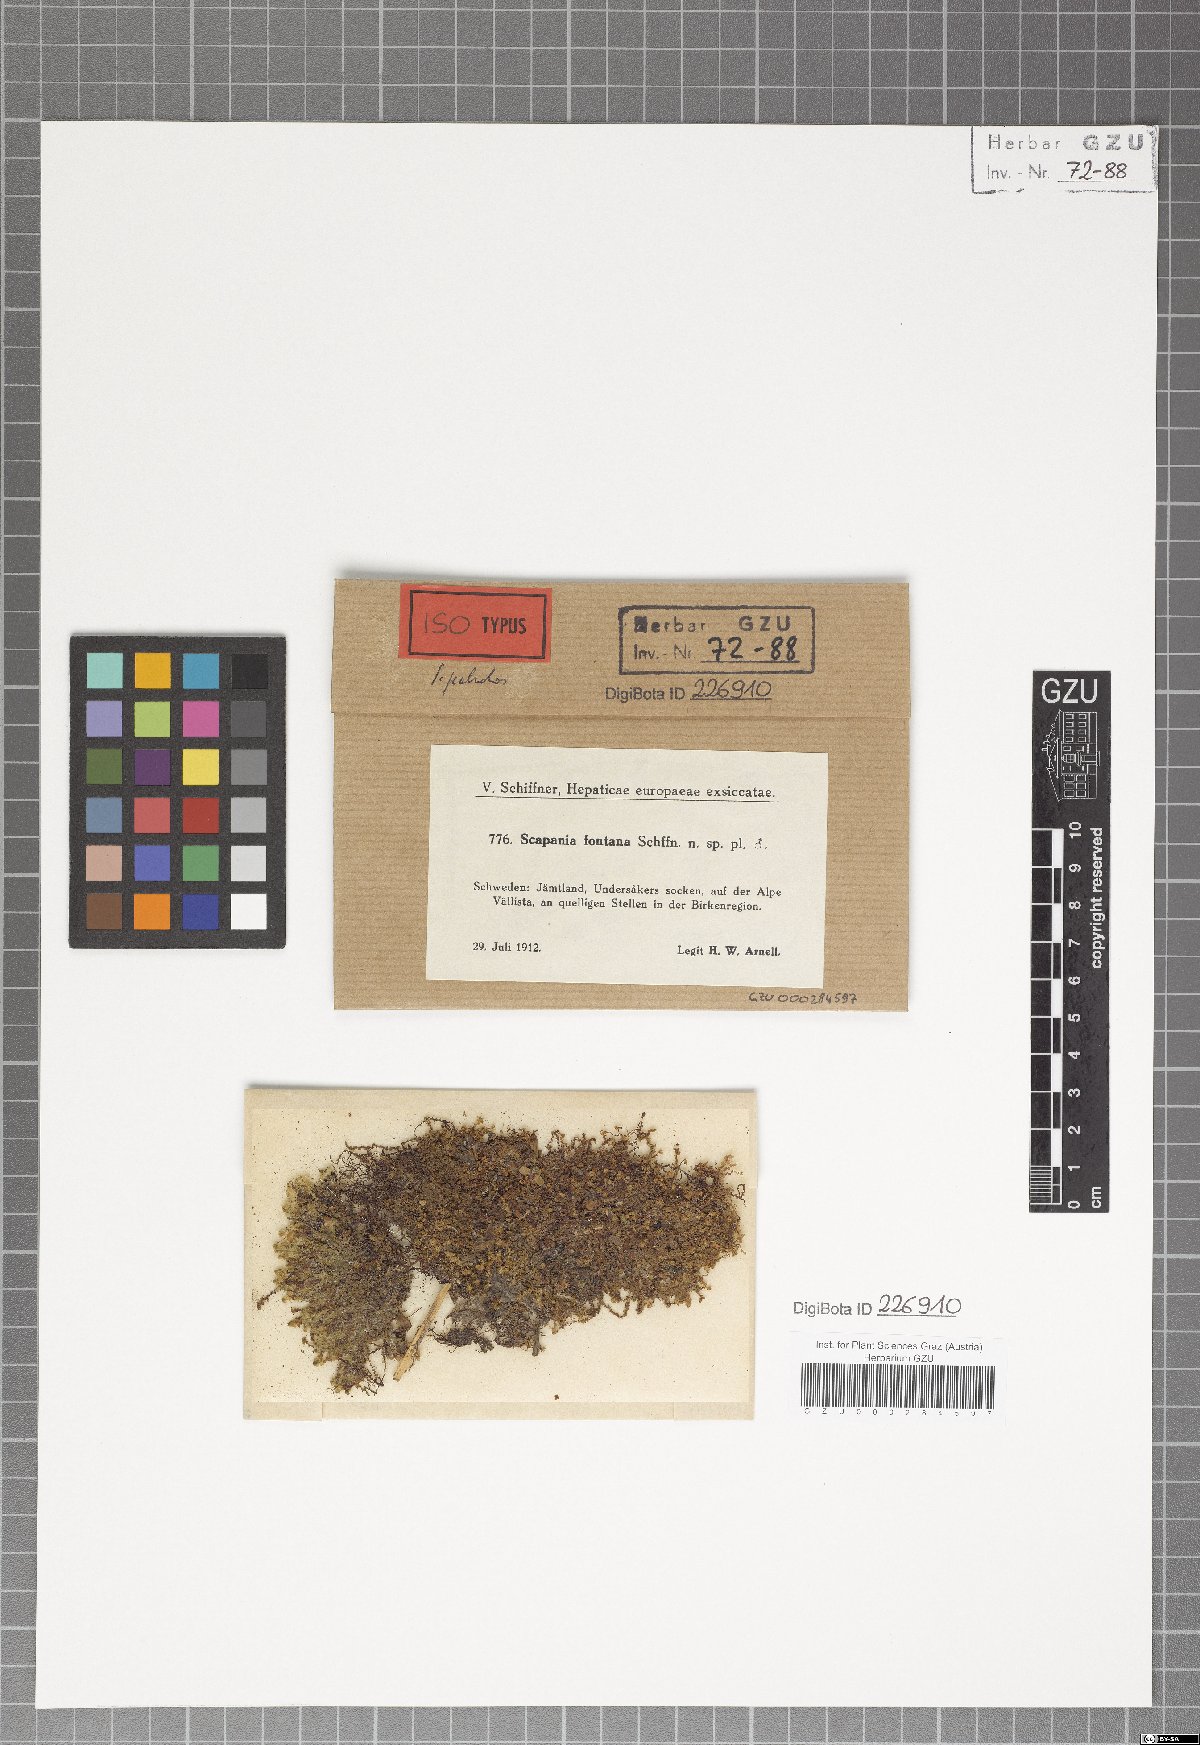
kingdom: Plantae
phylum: Marchantiophyta
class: Jungermanniopsida
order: Jungermanniales
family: Scapaniaceae
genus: Scapania
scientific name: Scapania paludosa
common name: Floppy earwort
